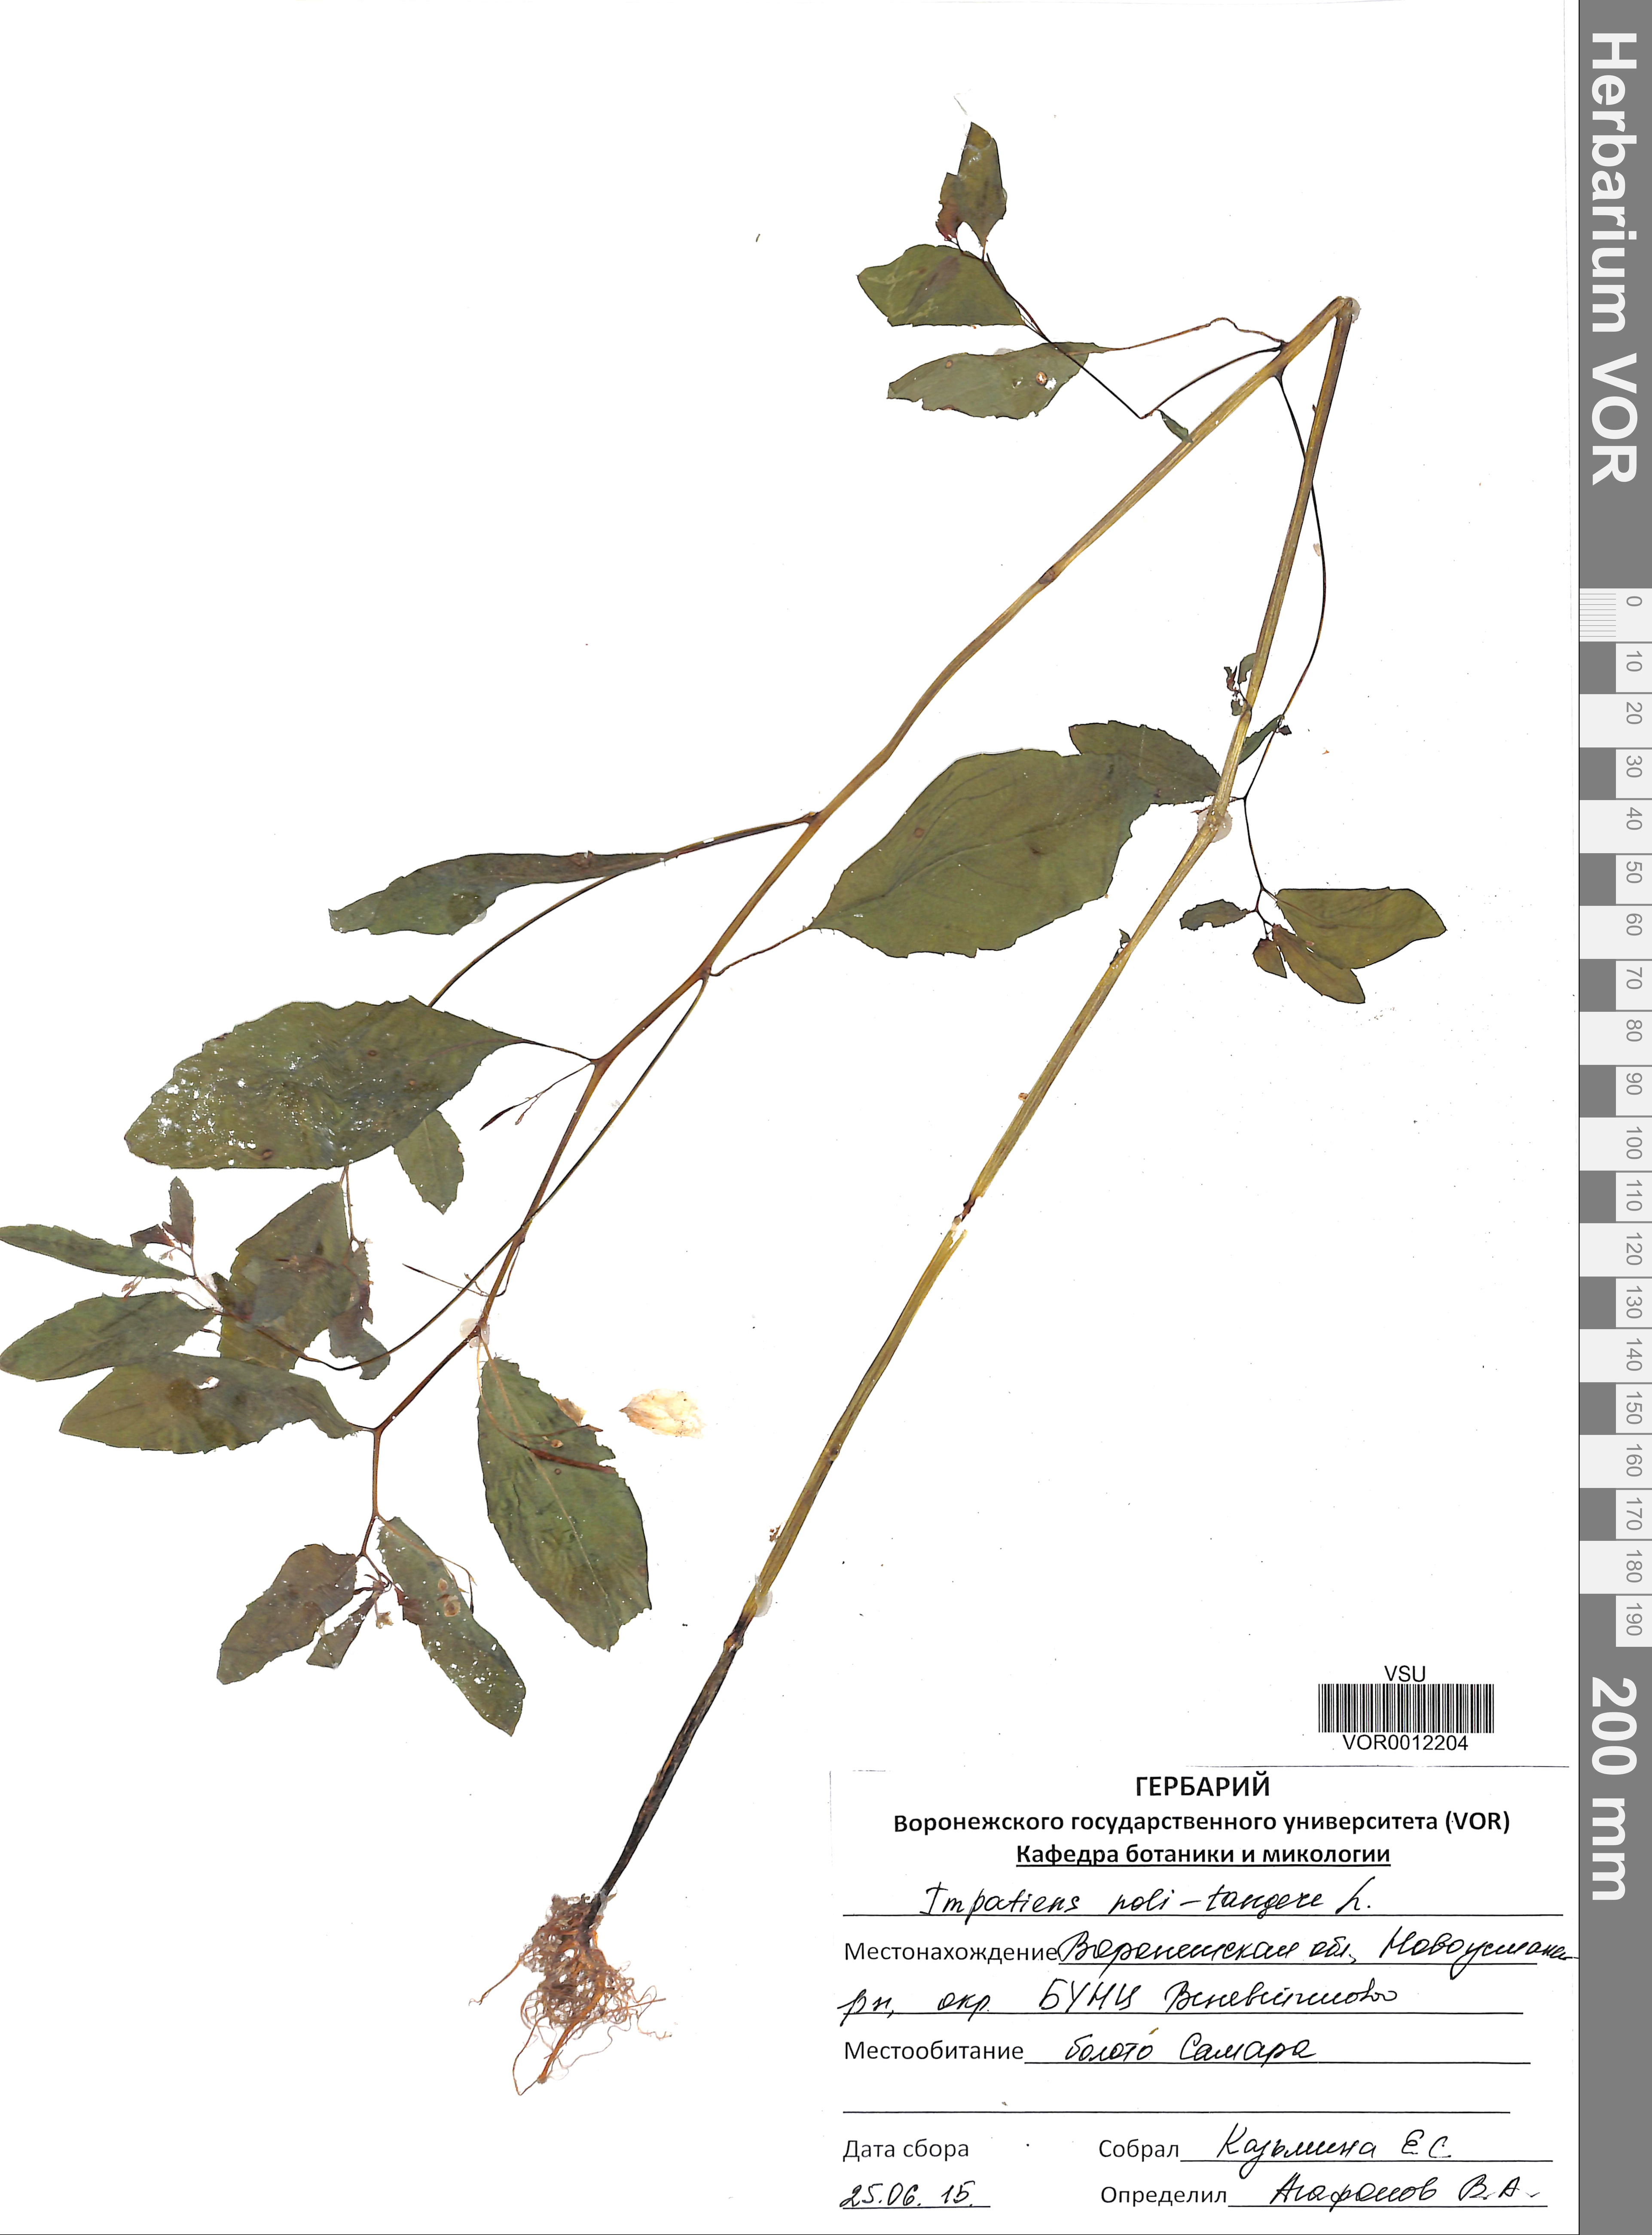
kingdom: Plantae
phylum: Tracheophyta
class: Magnoliopsida
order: Ericales
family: Balsaminaceae
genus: Impatiens
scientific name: Impatiens noli-tangere
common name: Touch-me-not balsam
